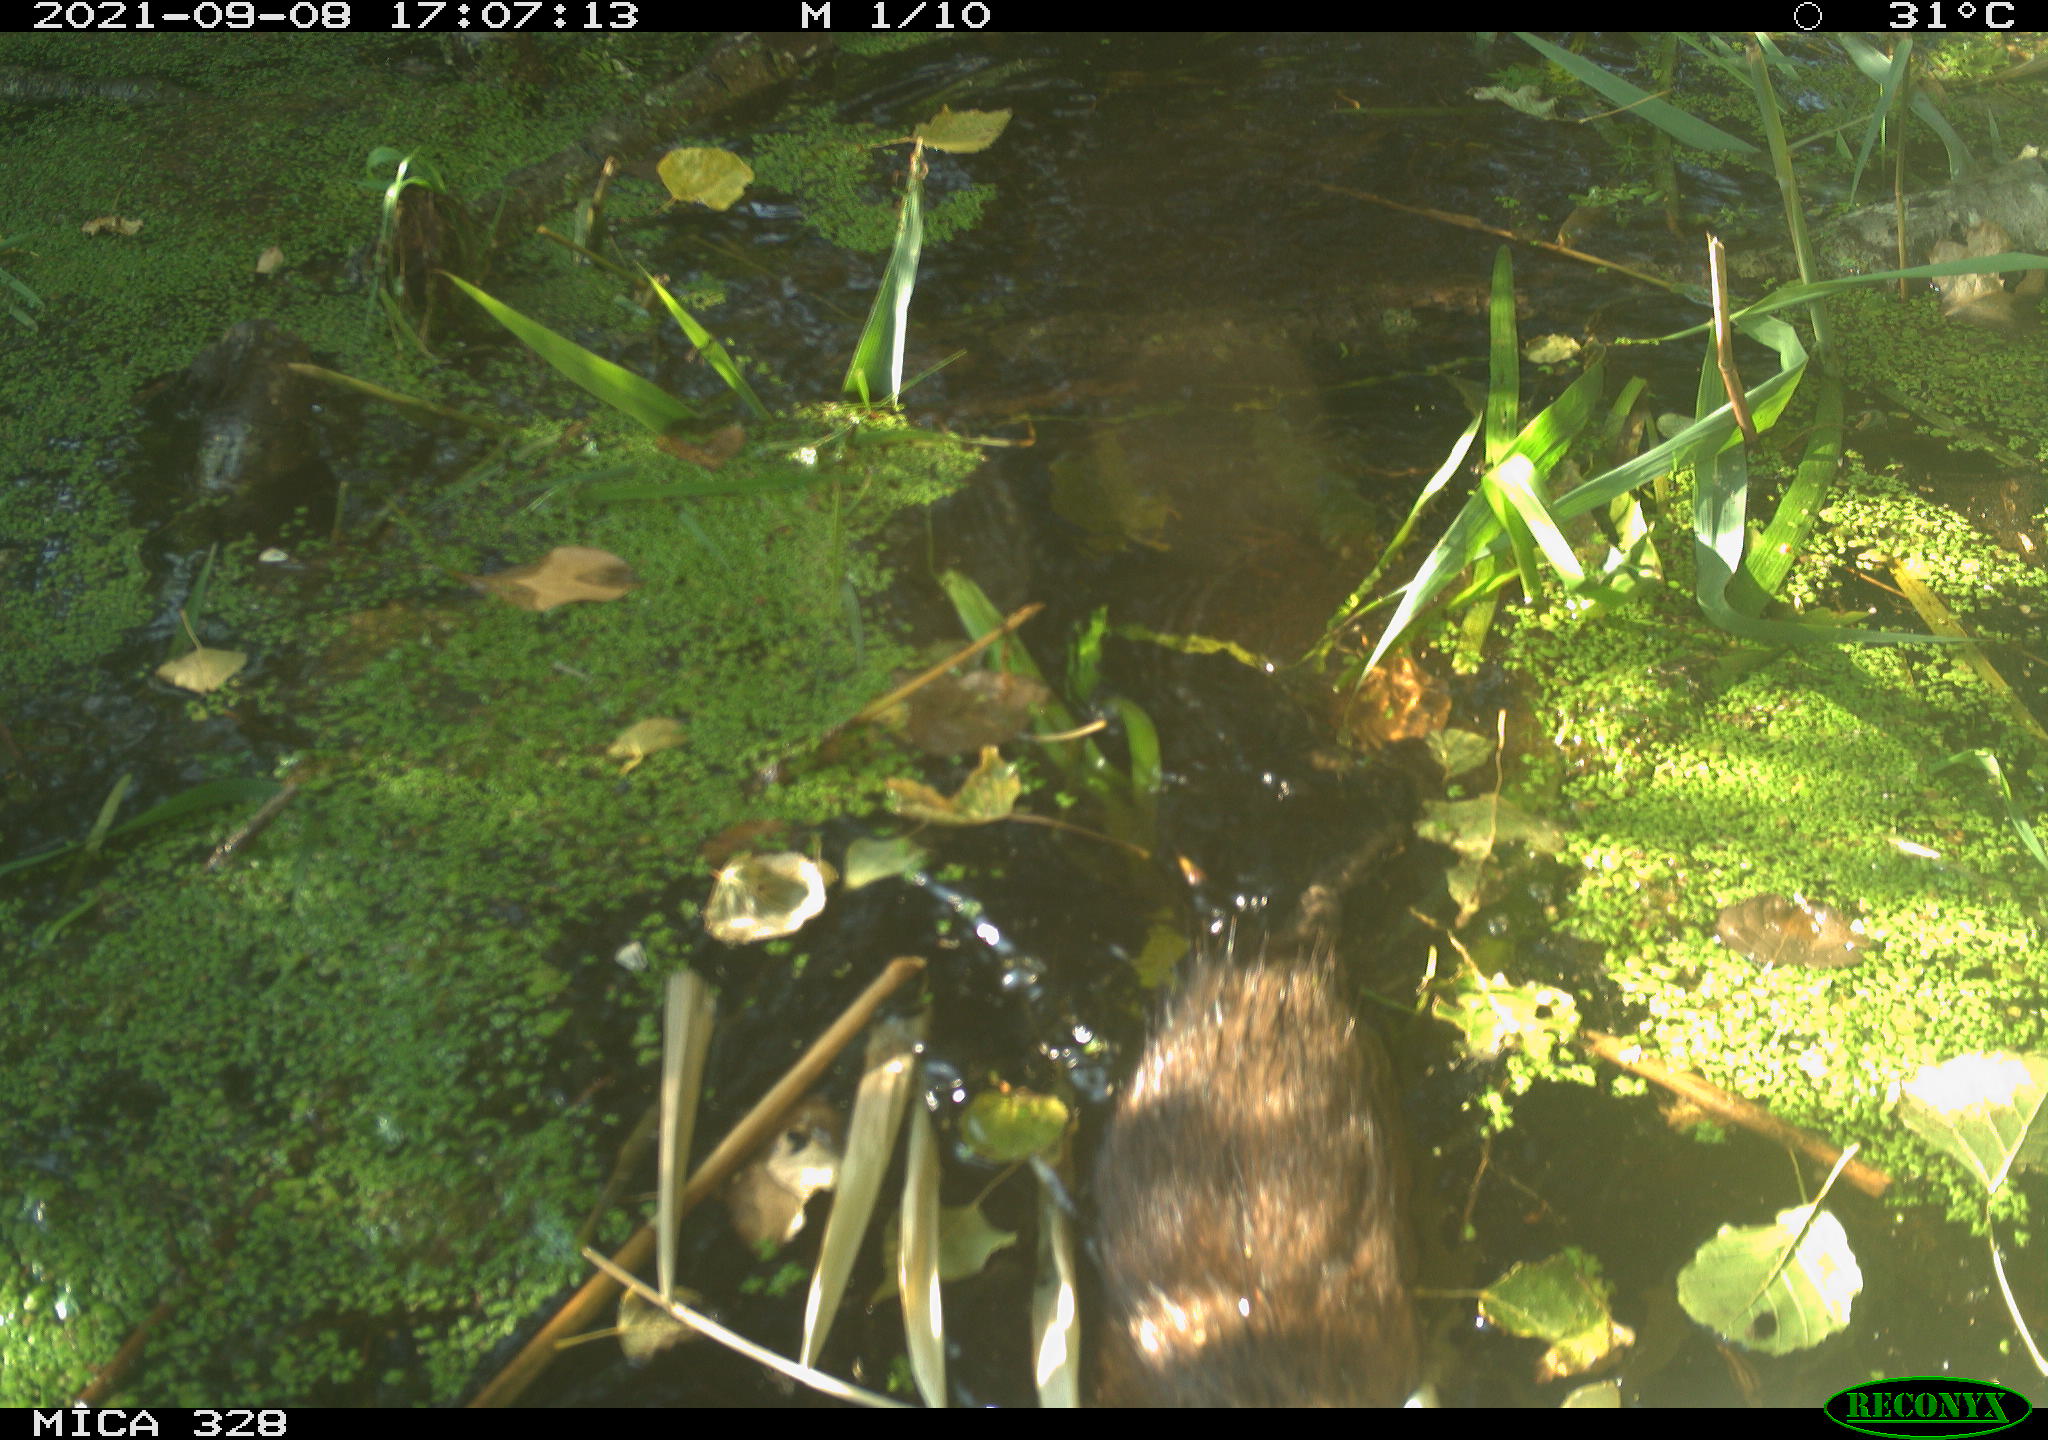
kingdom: Animalia
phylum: Chordata
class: Mammalia
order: Rodentia
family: Cricetidae
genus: Ondatra
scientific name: Ondatra zibethicus
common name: Muskrat
